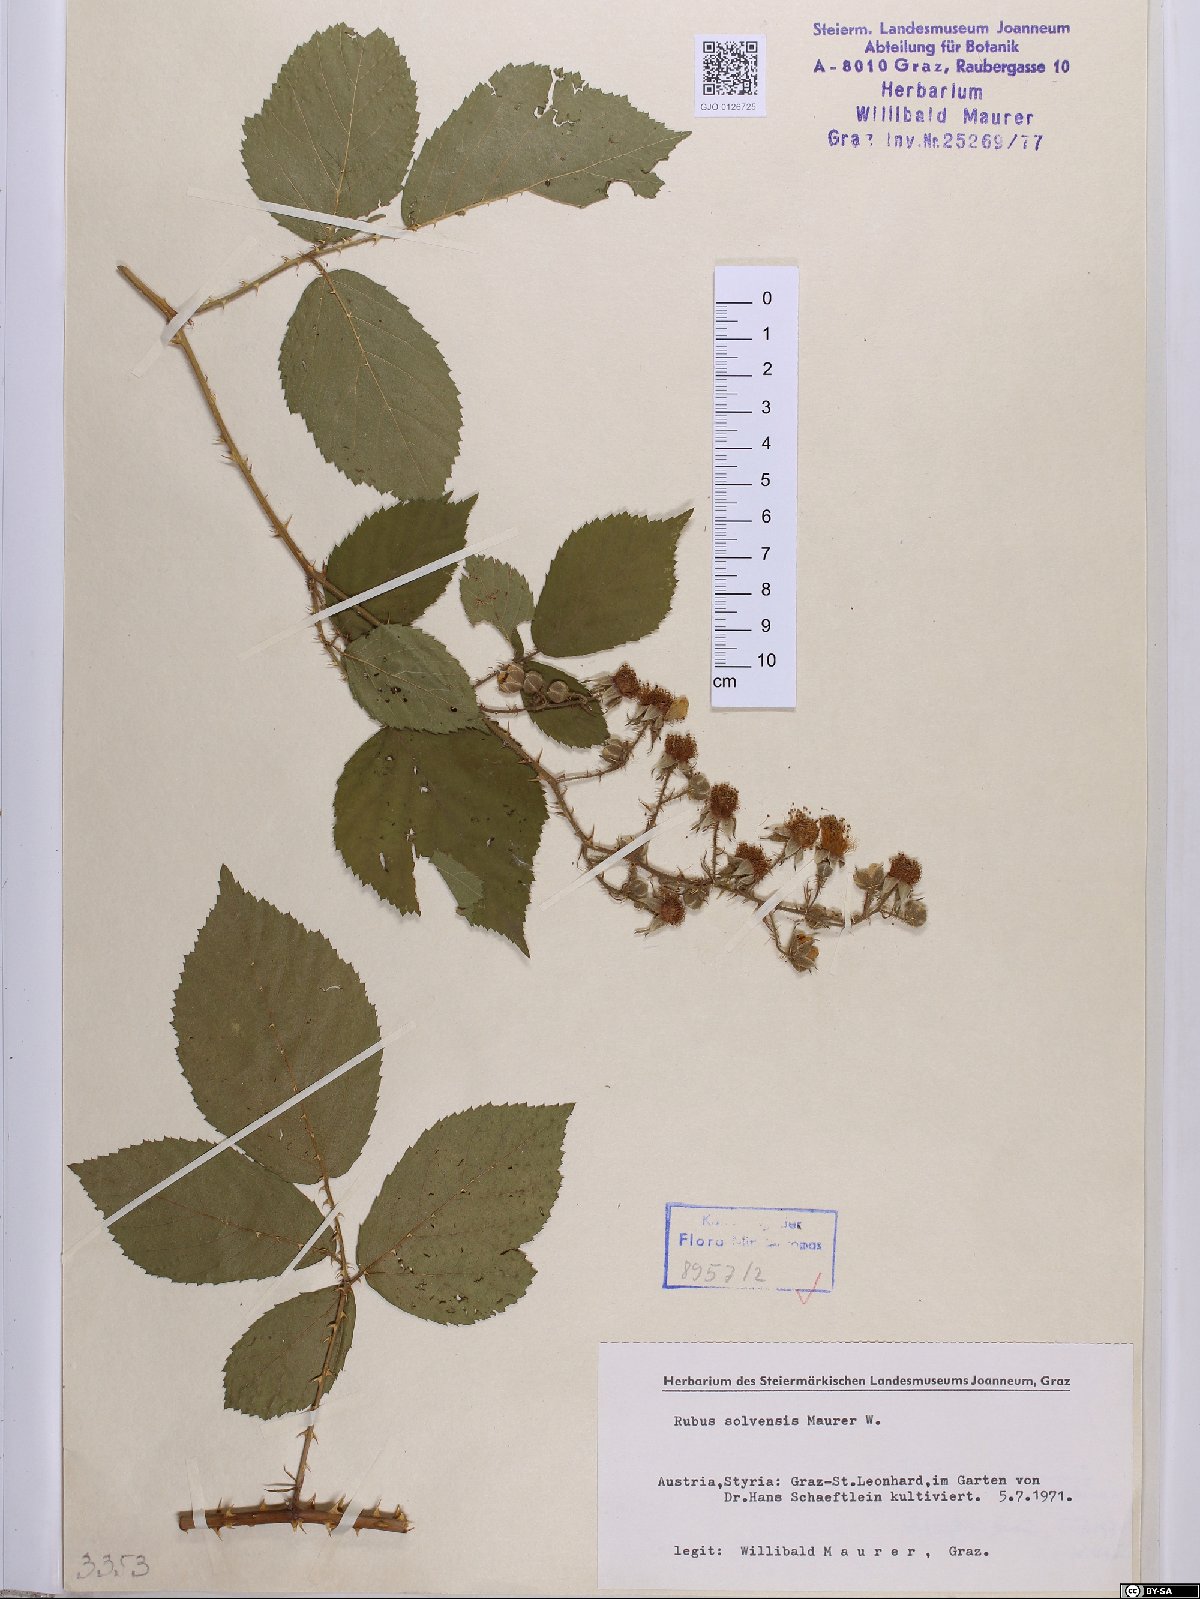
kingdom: Plantae
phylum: Tracheophyta
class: Magnoliopsida
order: Rosales
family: Rosaceae
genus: Rubus
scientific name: Rubus solvensis
